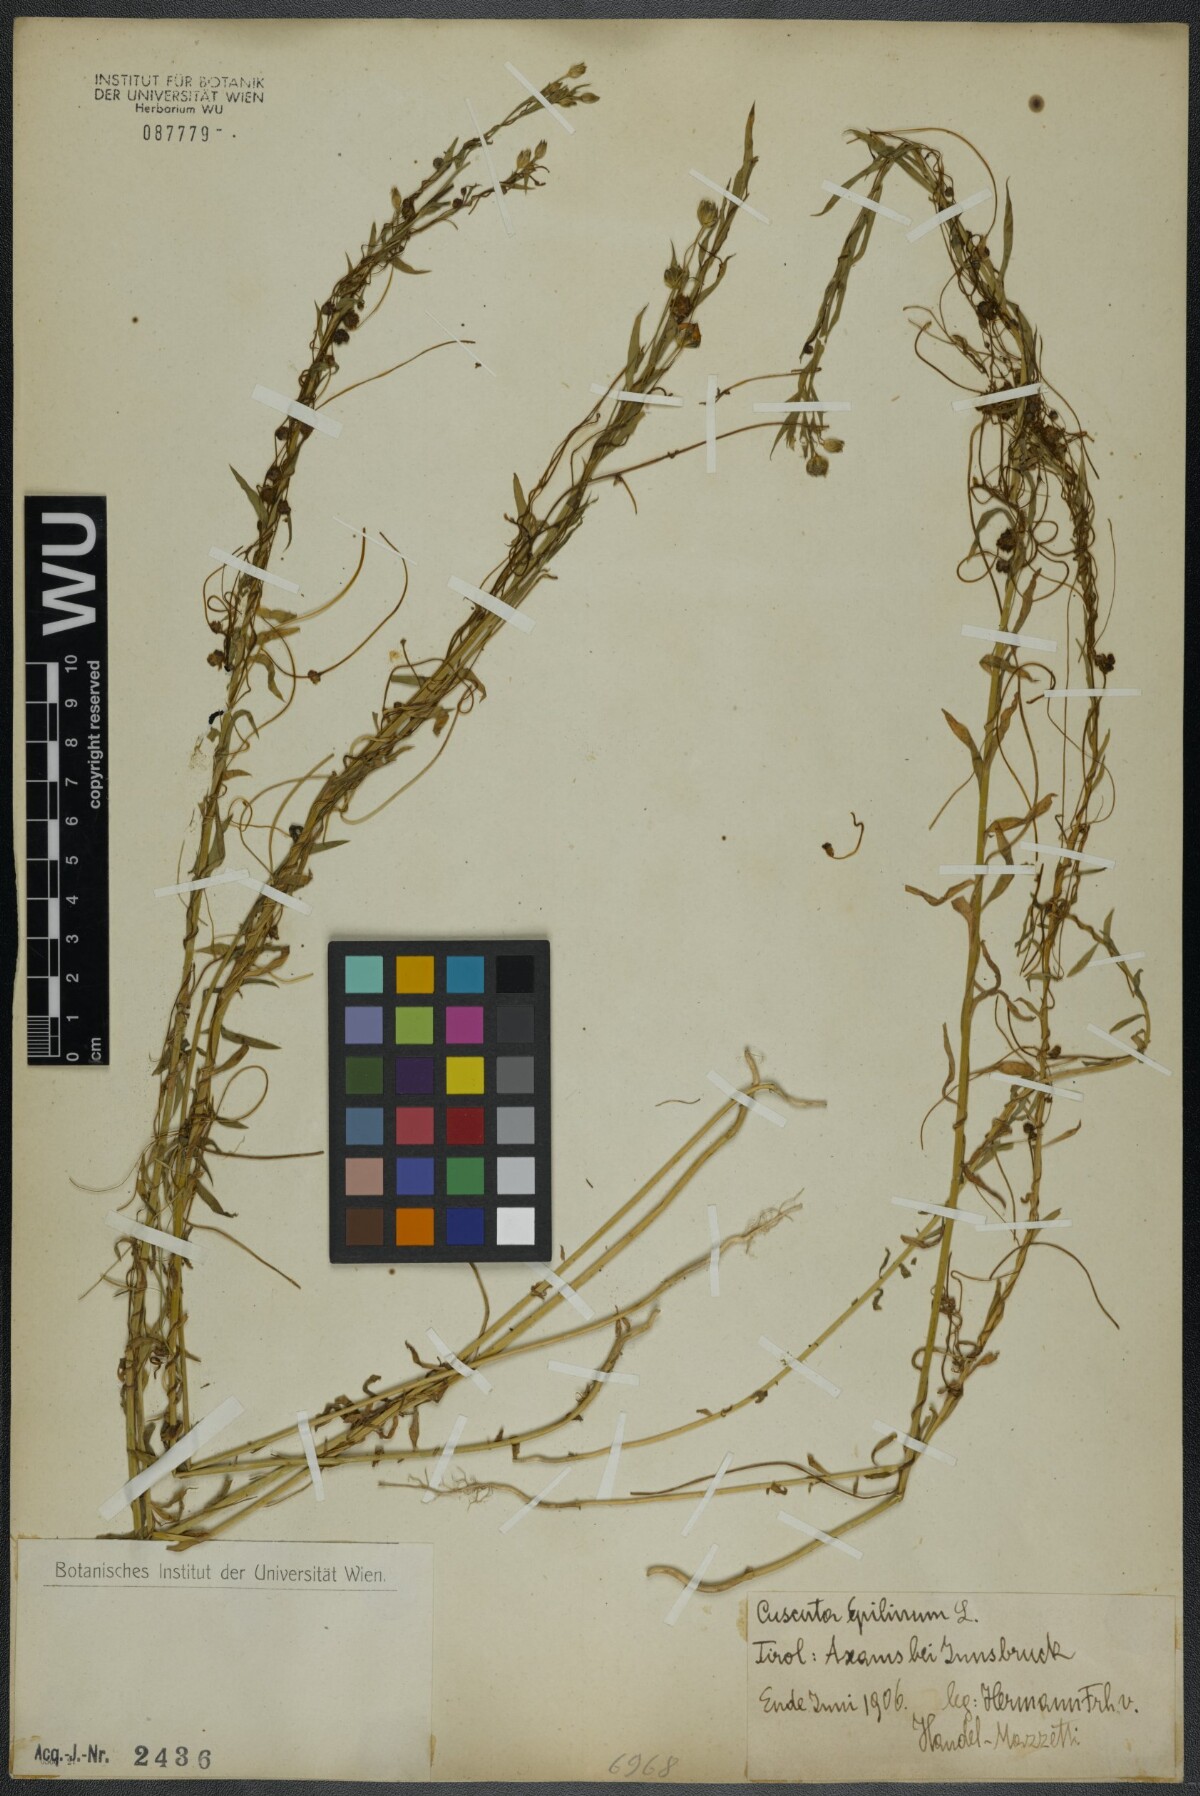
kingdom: Plantae
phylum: Tracheophyta
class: Magnoliopsida
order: Solanales
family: Convolvulaceae
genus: Cuscuta
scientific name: Cuscuta epilinum
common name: Flax dodder
